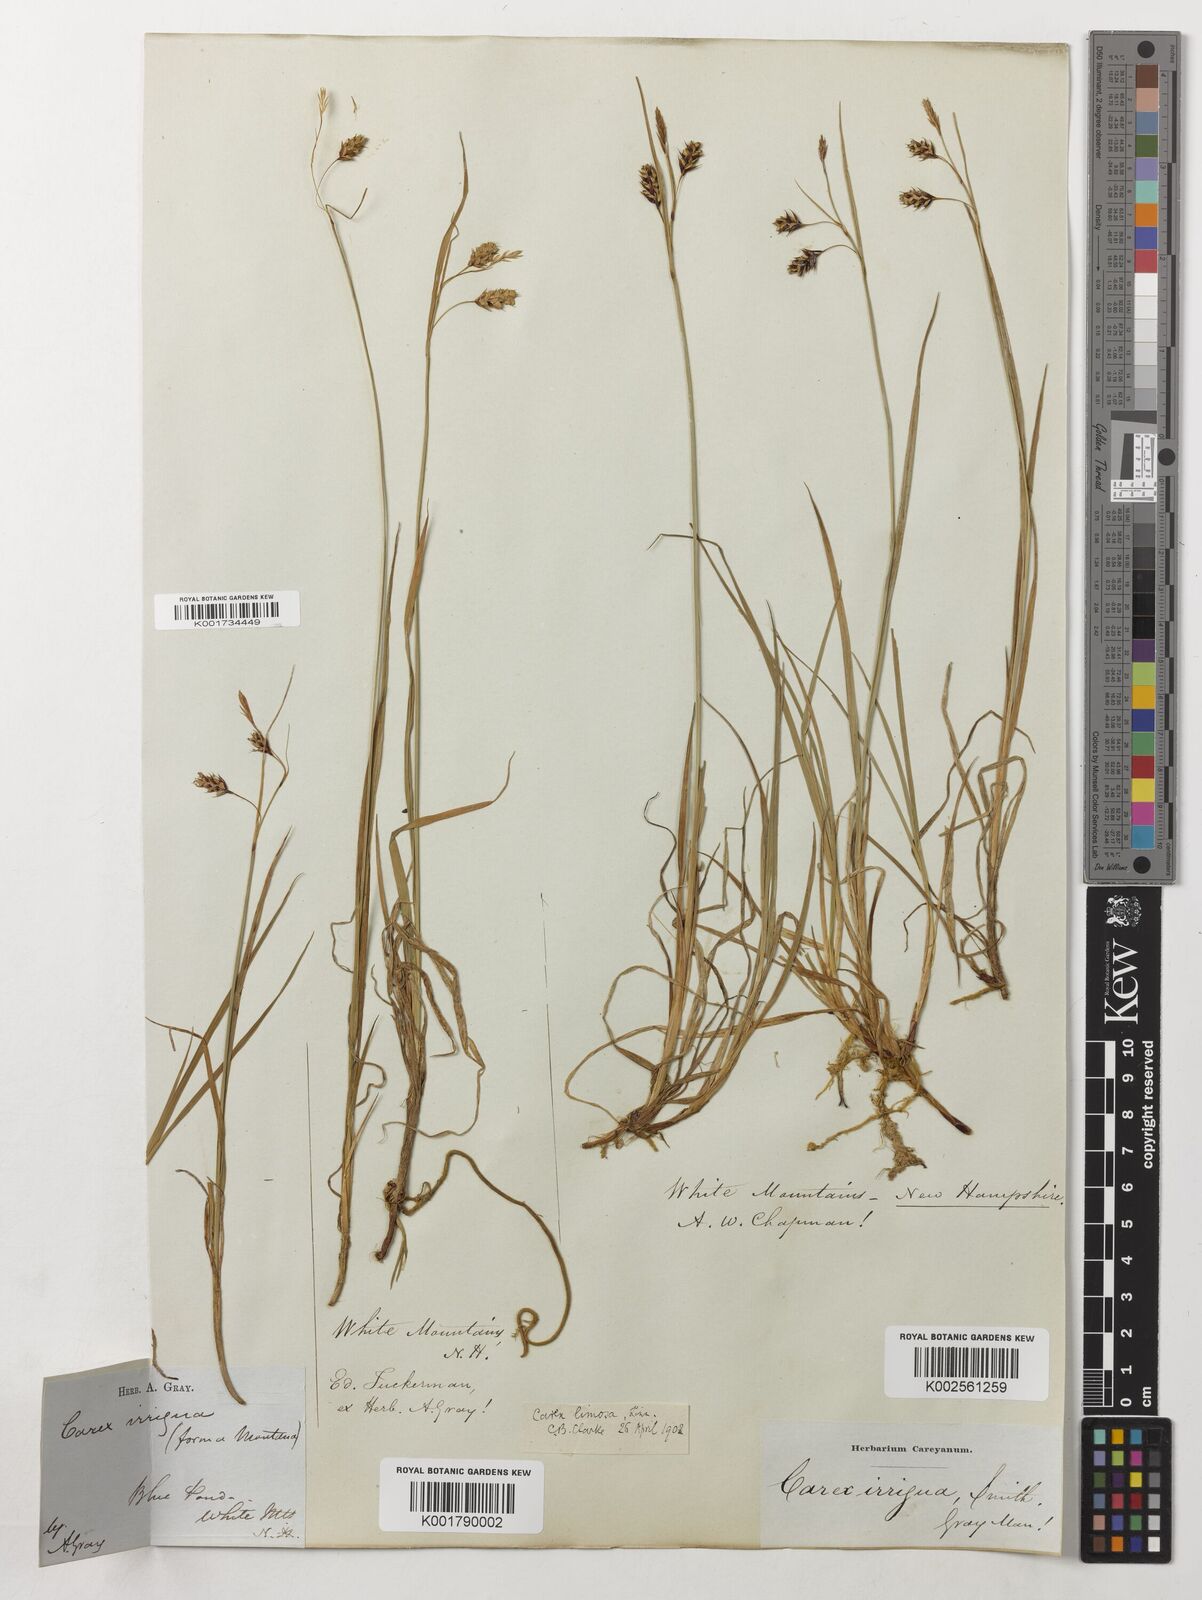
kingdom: Plantae
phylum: Tracheophyta
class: Liliopsida
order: Poales
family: Cyperaceae
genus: Carex
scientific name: Carex magellanica
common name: Bog sedge
